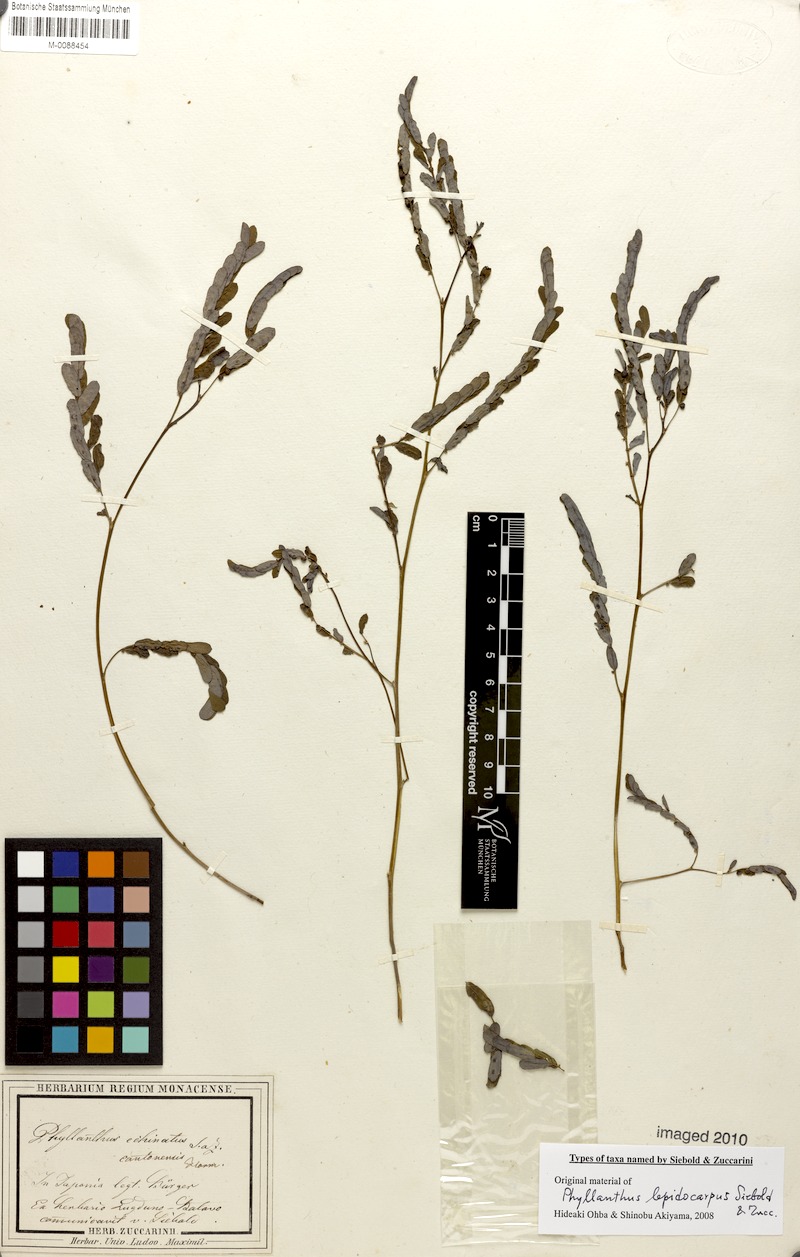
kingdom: Plantae
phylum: Tracheophyta
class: Magnoliopsida
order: Malpighiales
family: Phyllanthaceae
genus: Phyllanthus
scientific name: Phyllanthus urinaria
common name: Chamber bitter
